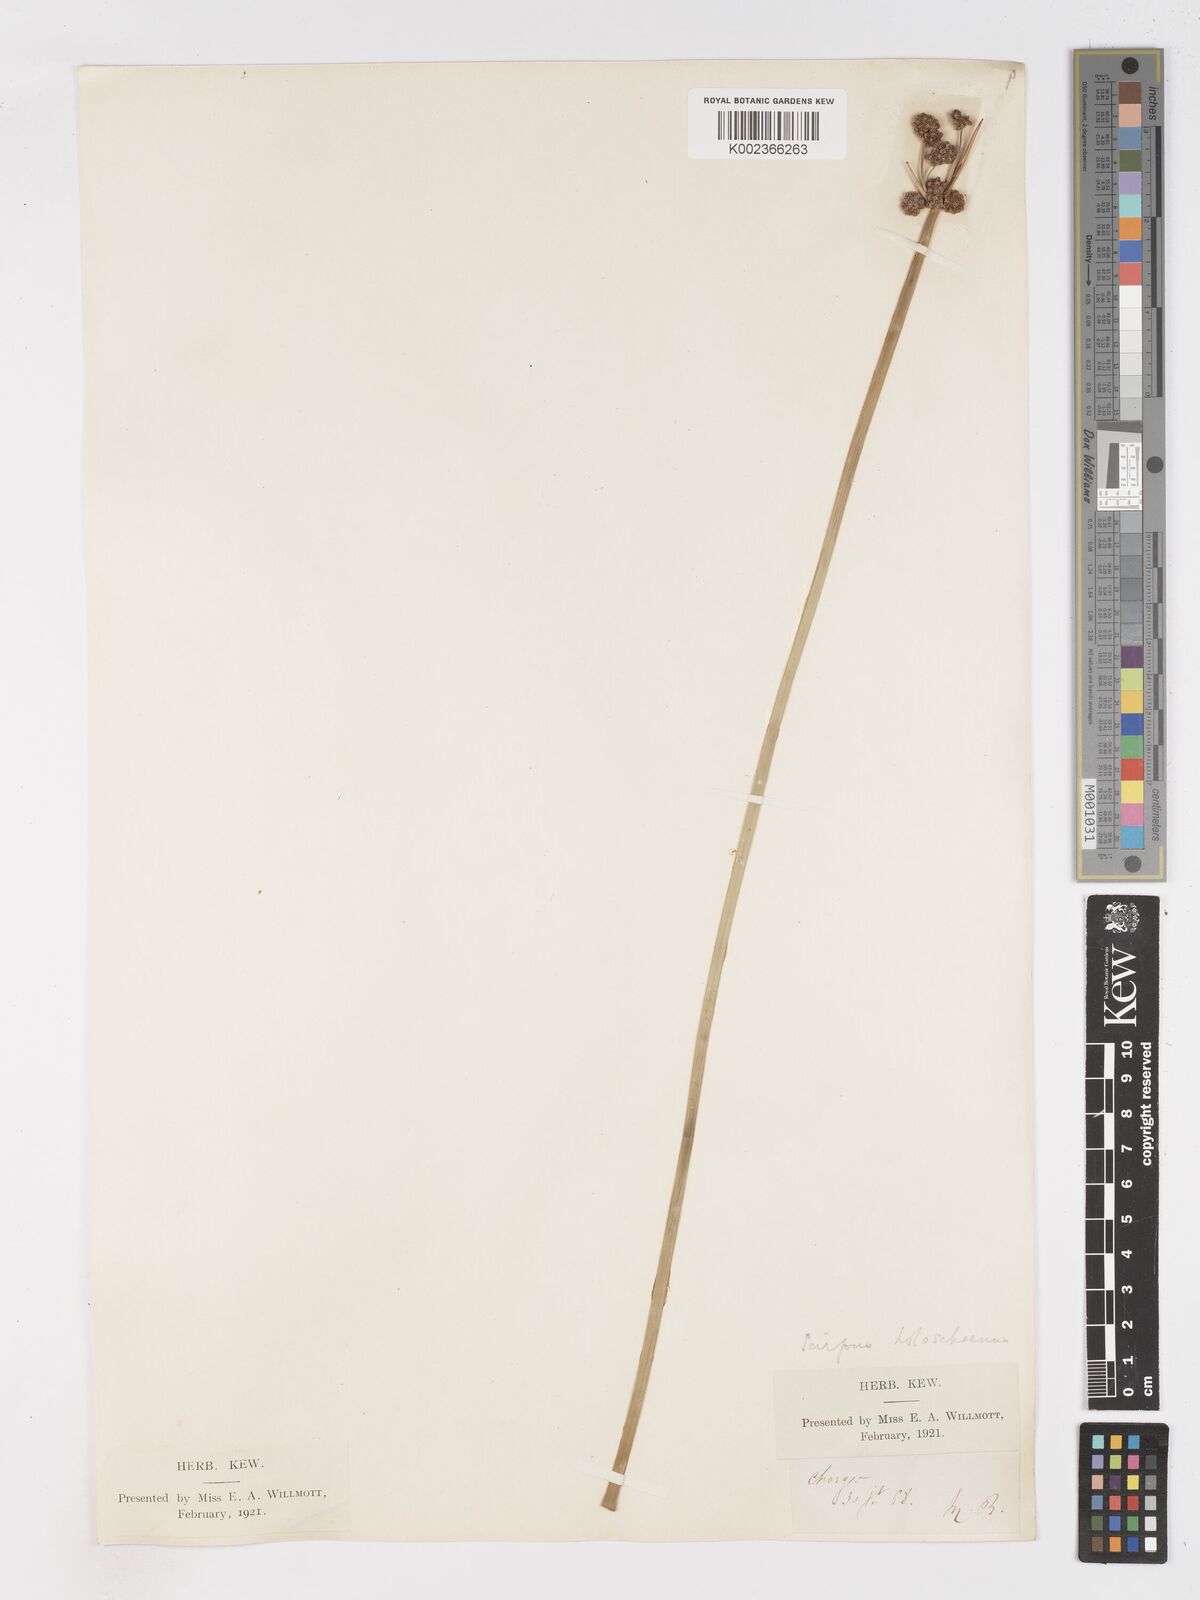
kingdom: Plantae
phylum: Tracheophyta
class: Liliopsida
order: Poales
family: Cyperaceae
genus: Scirpoides
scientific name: Scirpoides holoschoenus
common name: Round-headed club-rush
